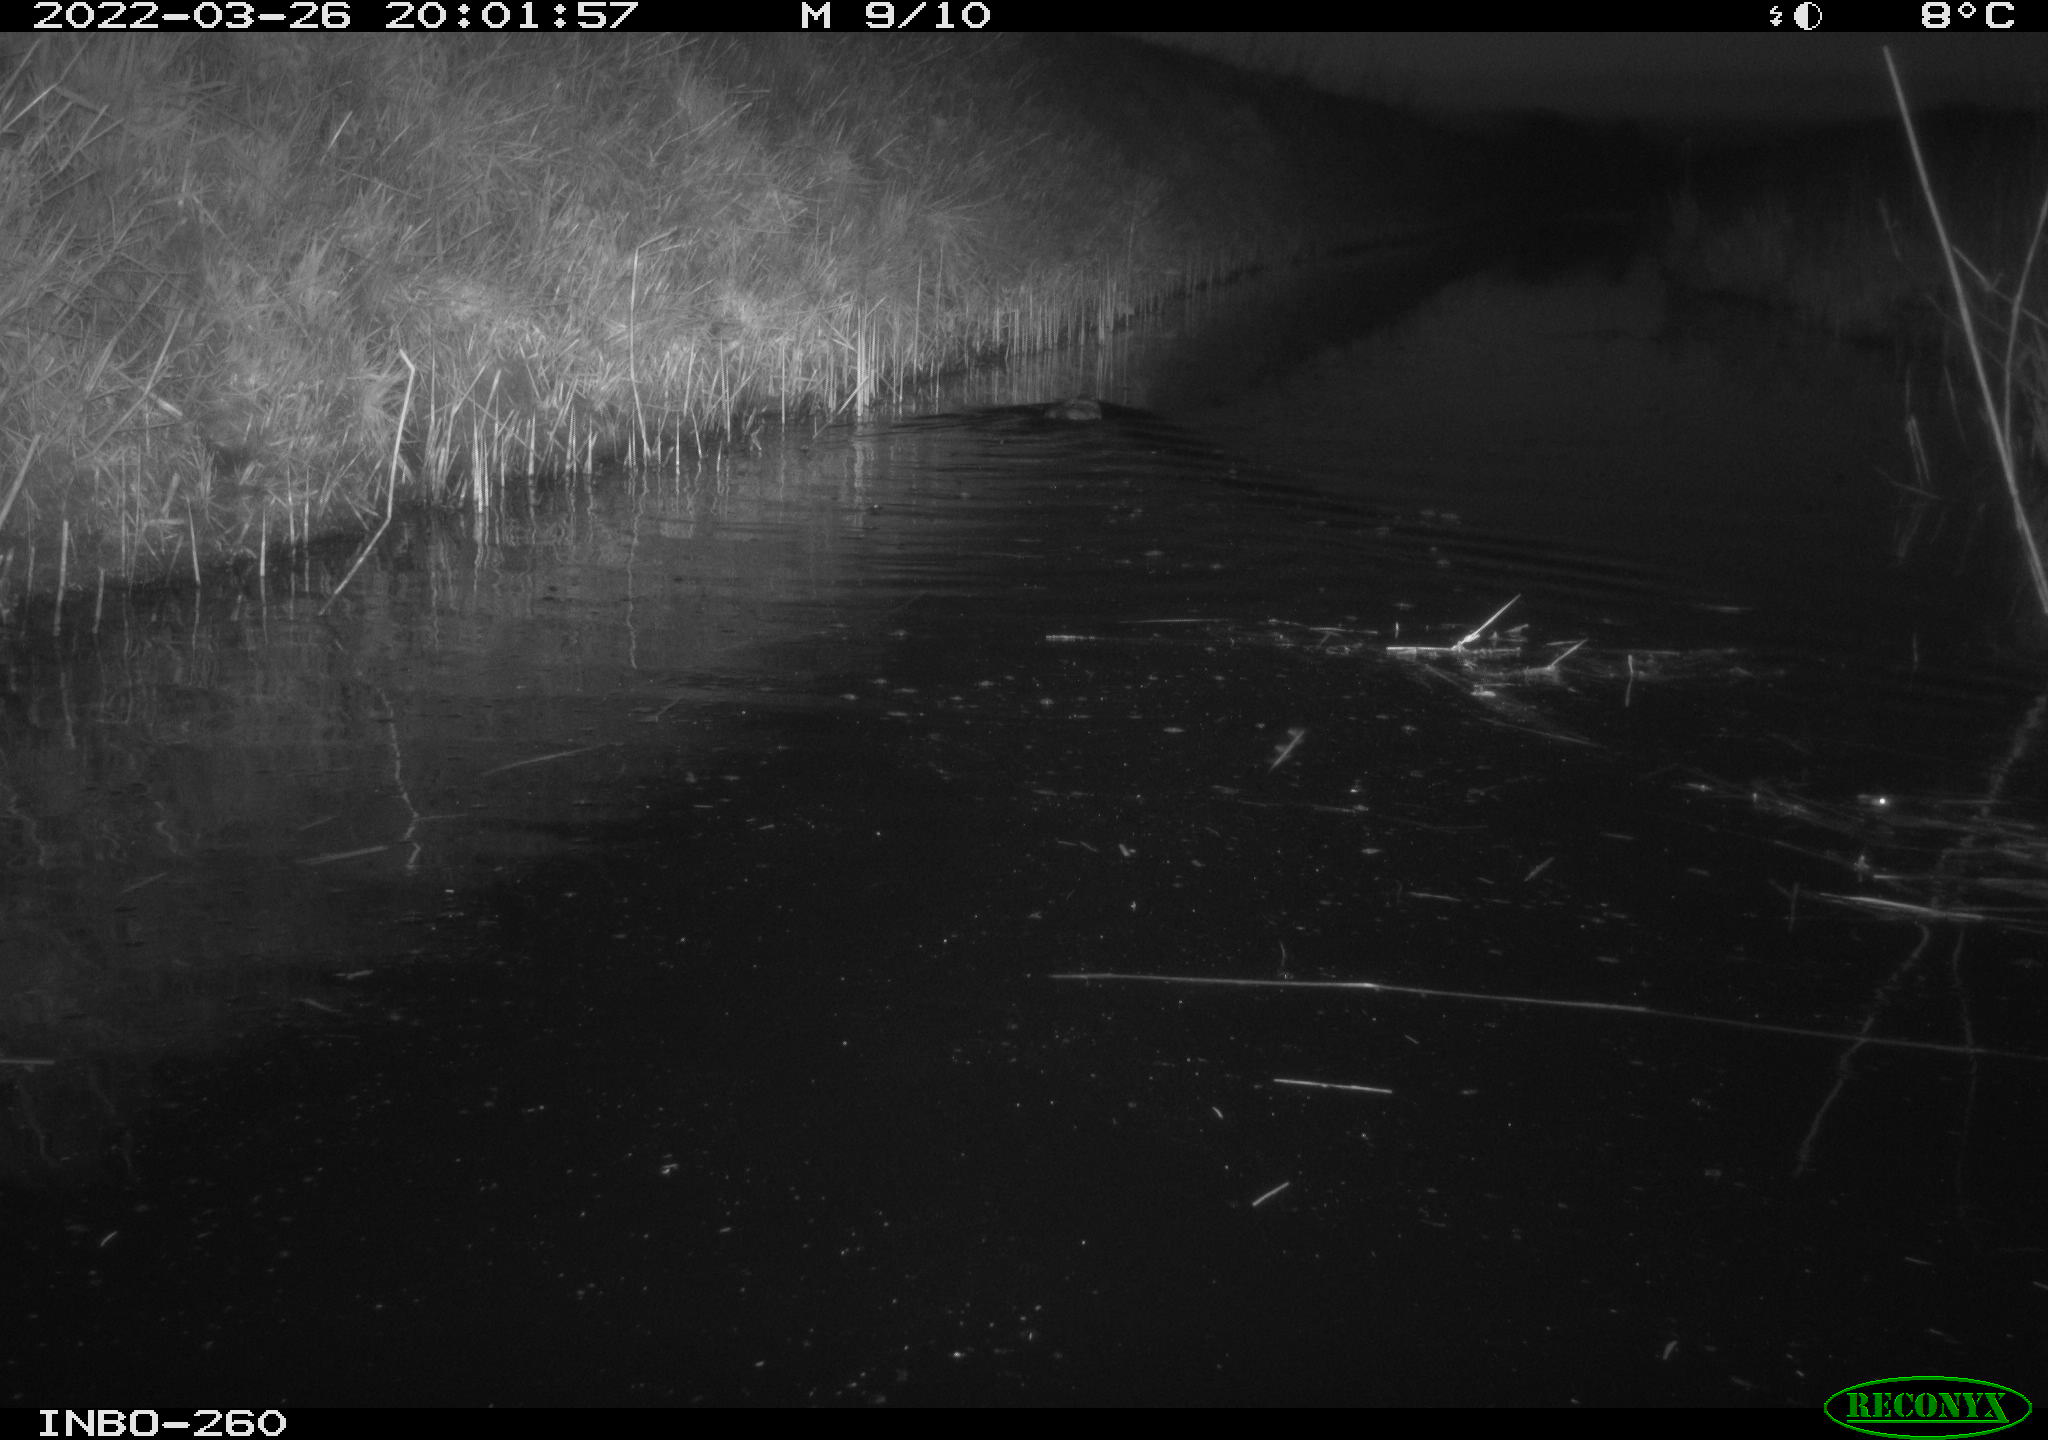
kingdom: Animalia
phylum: Chordata
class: Mammalia
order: Rodentia
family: Cricetidae
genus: Ondatra
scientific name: Ondatra zibethicus
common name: Muskrat
